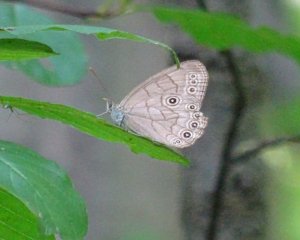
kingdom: Animalia
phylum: Arthropoda
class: Insecta
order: Lepidoptera
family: Nymphalidae
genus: Lethe
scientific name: Lethe eurydice
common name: Appalachian Eyed Brown
